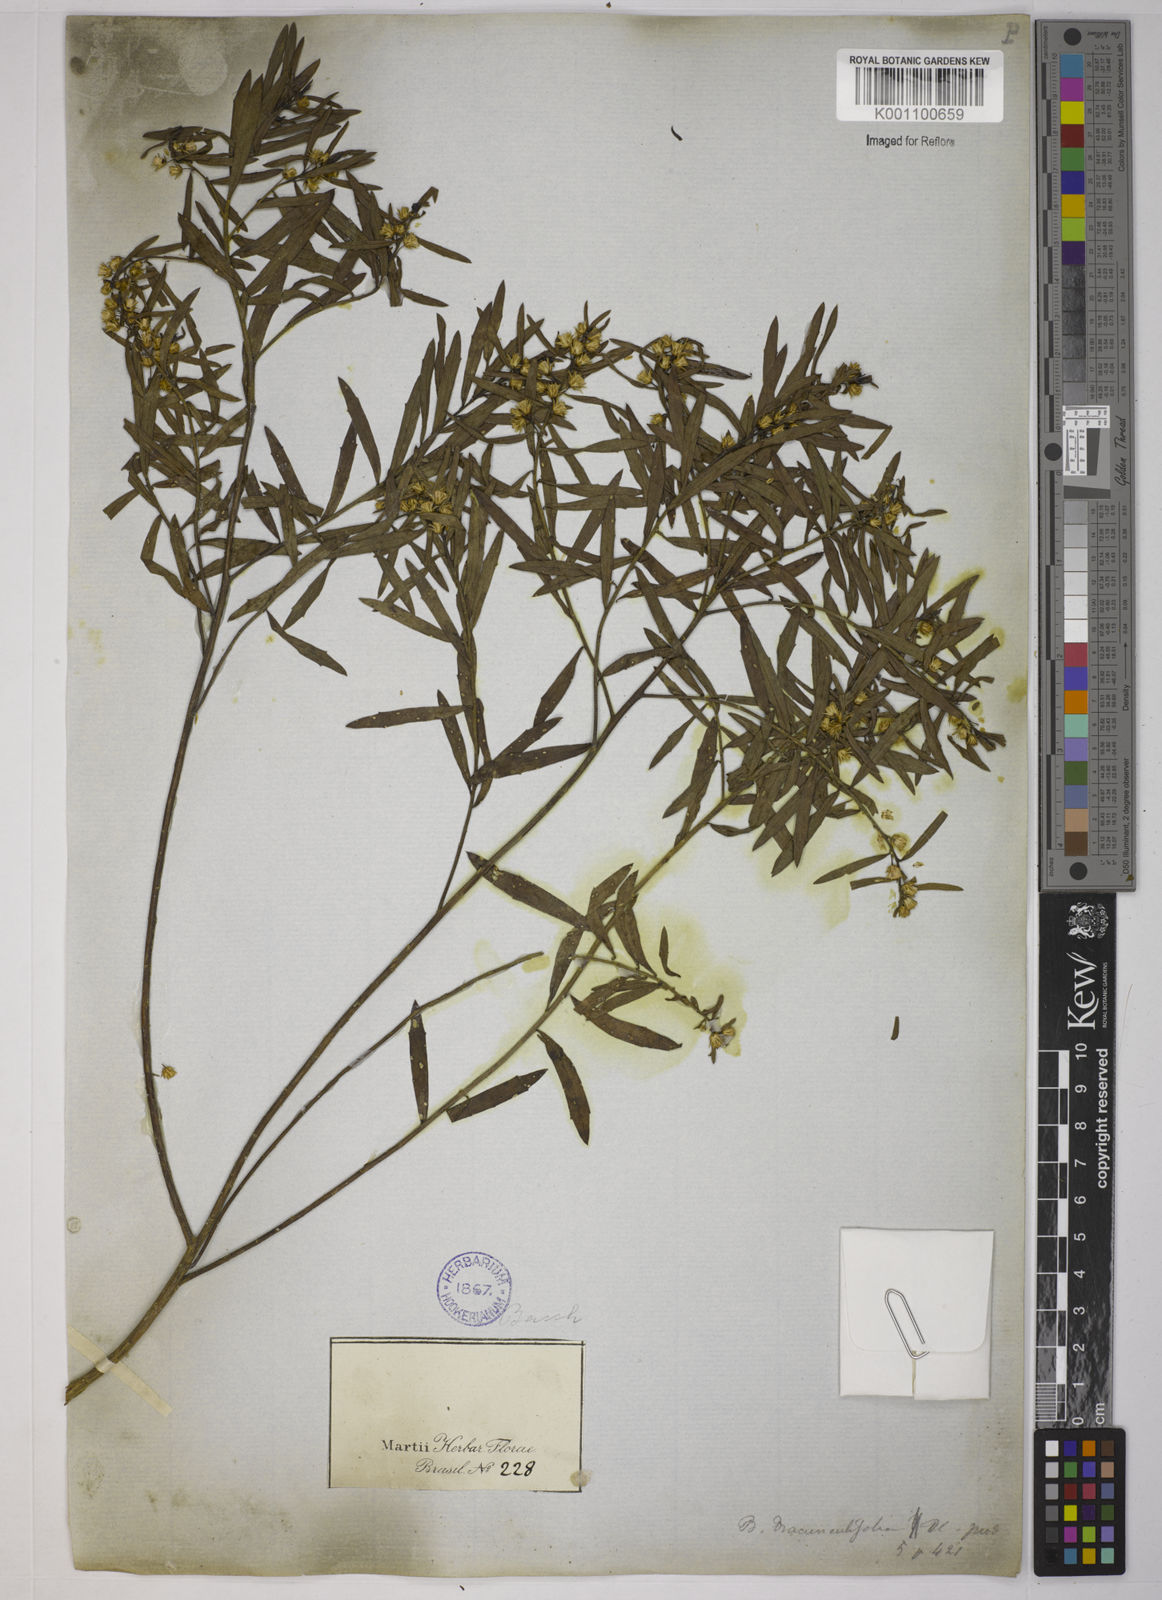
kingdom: Plantae
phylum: Tracheophyta
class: Magnoliopsida
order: Asterales
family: Asteraceae
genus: Baccharis
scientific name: Baccharis dracunculifolia
